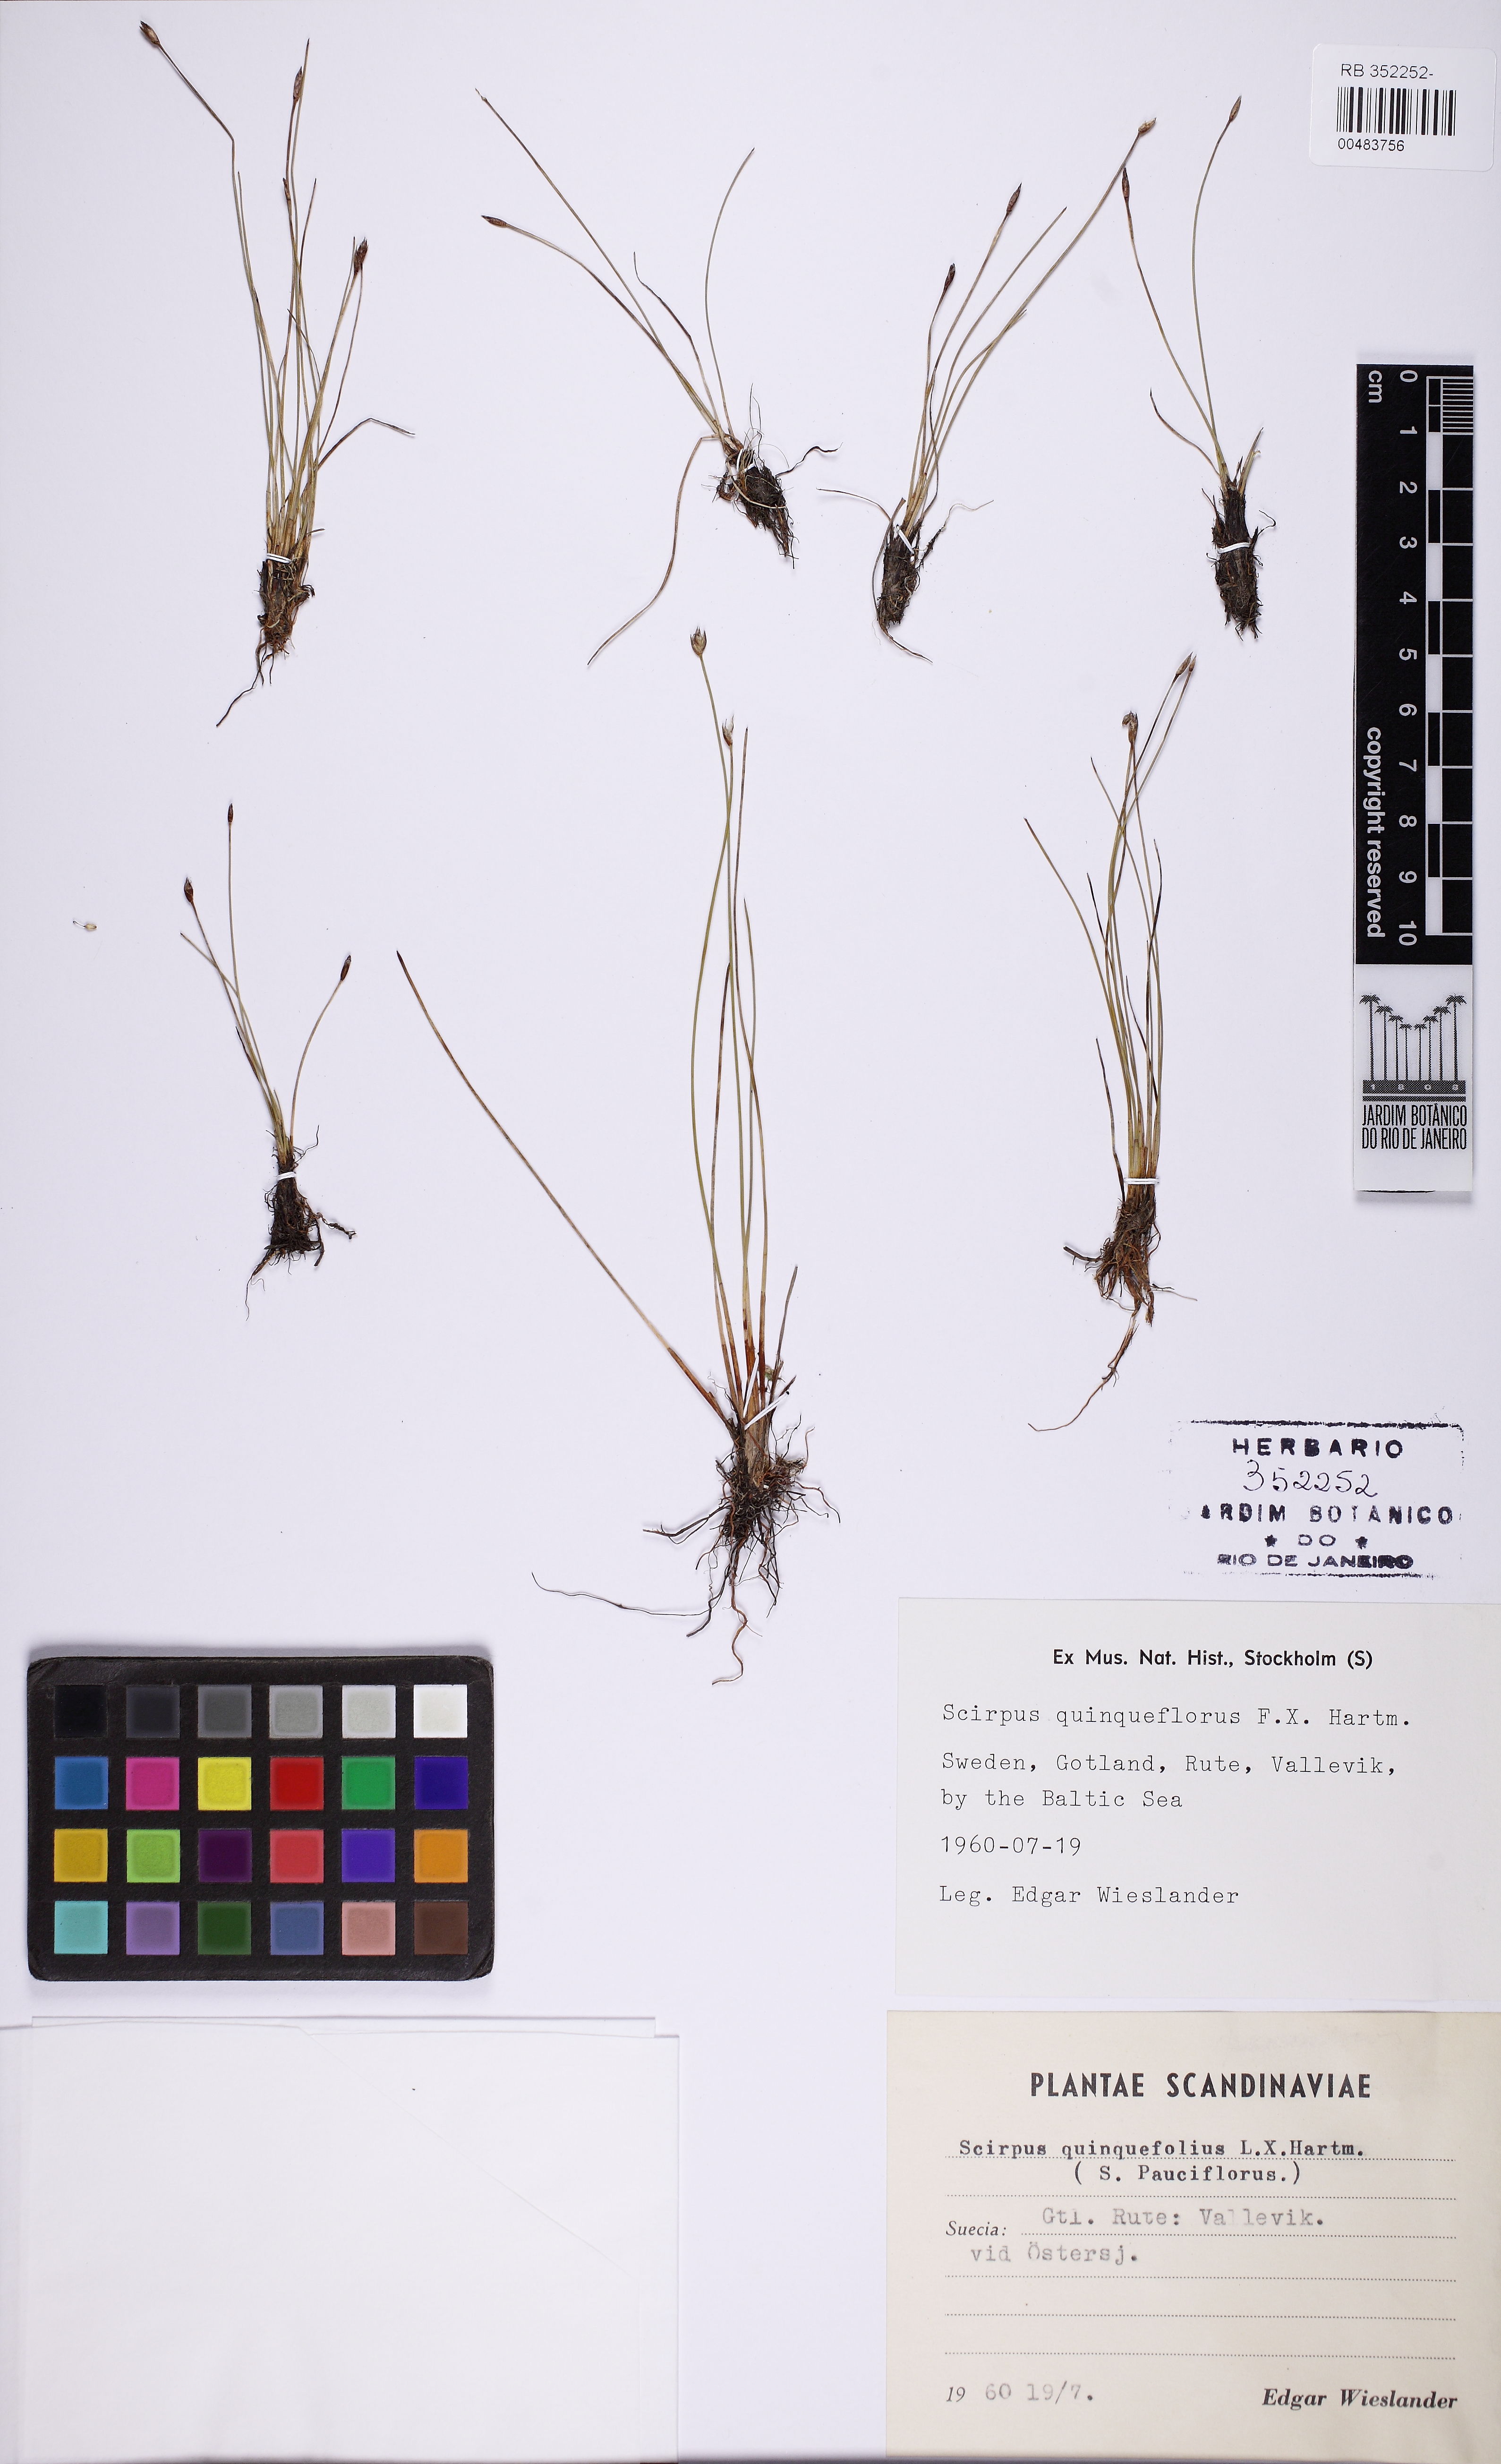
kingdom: Plantae
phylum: Tracheophyta
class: Liliopsida
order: Poales
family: Cyperaceae
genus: Eleocharis
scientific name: Eleocharis quinqueflora
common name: Few-flowered spike-rush
